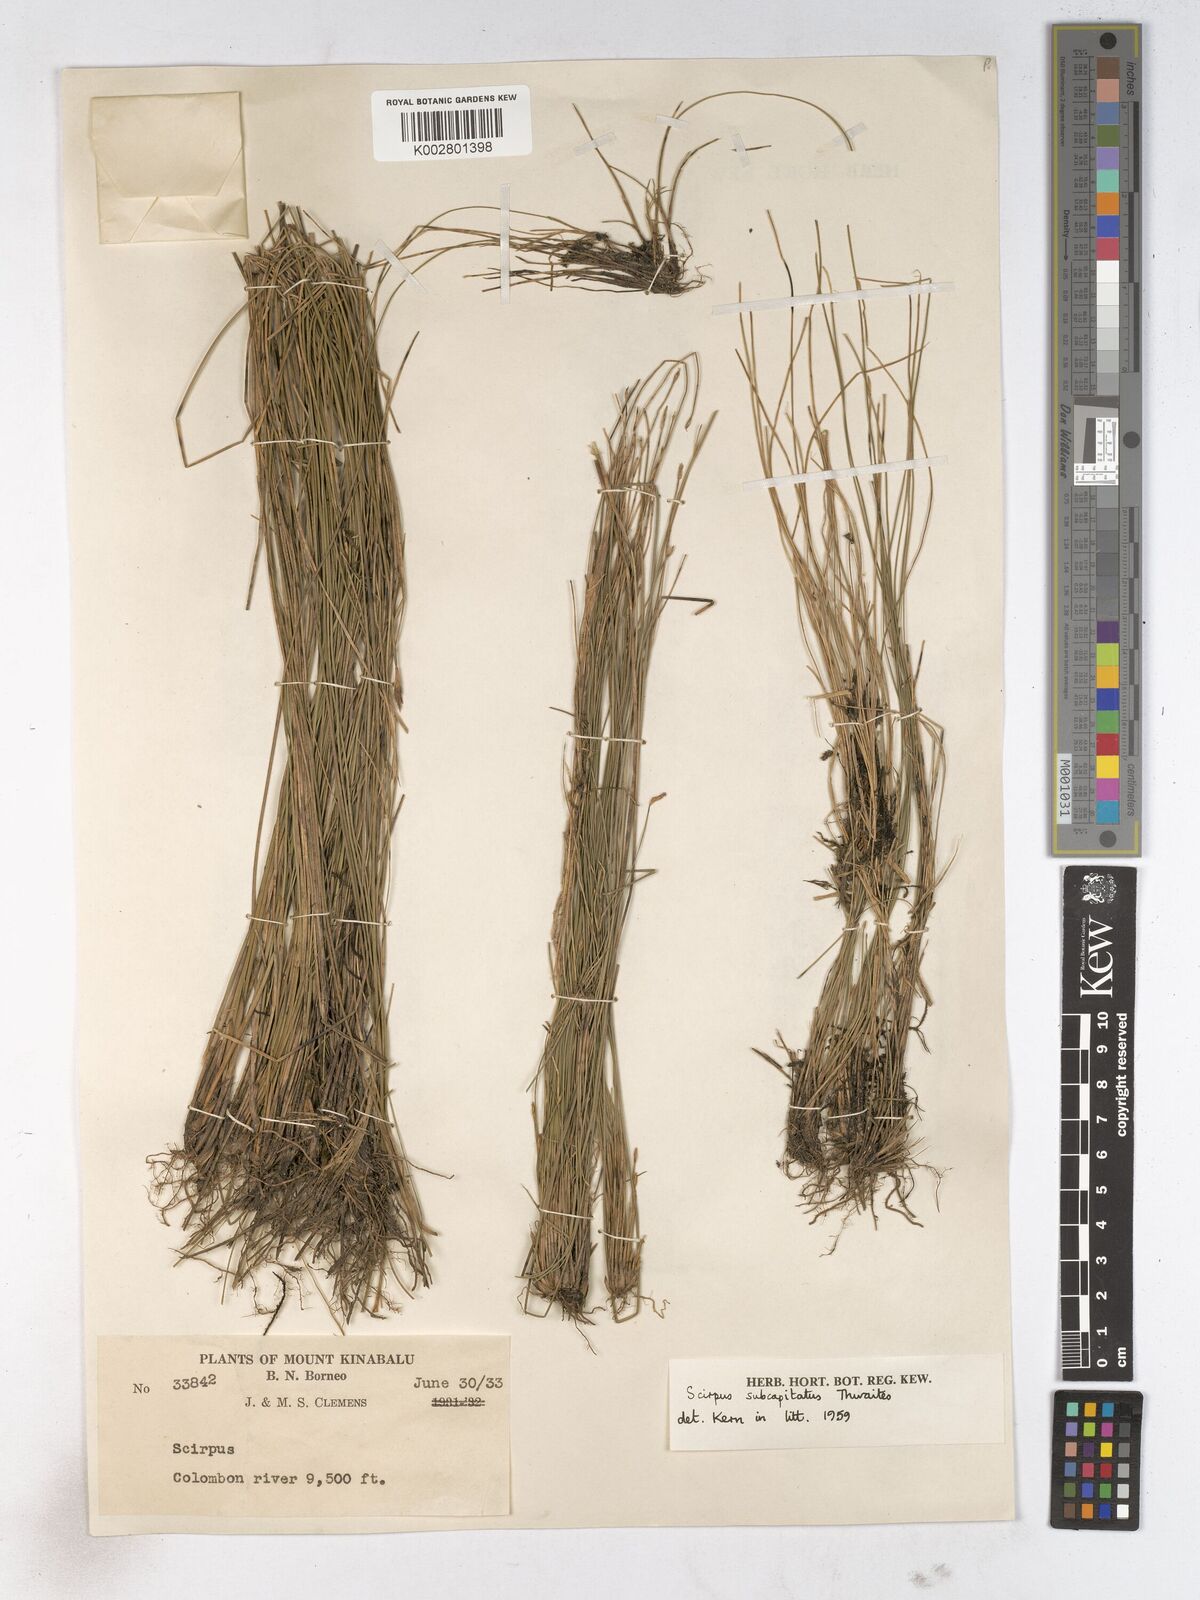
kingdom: Plantae
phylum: Tracheophyta
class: Liliopsida
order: Poales
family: Cyperaceae
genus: Trichophorum
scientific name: Trichophorum subcapitatum
